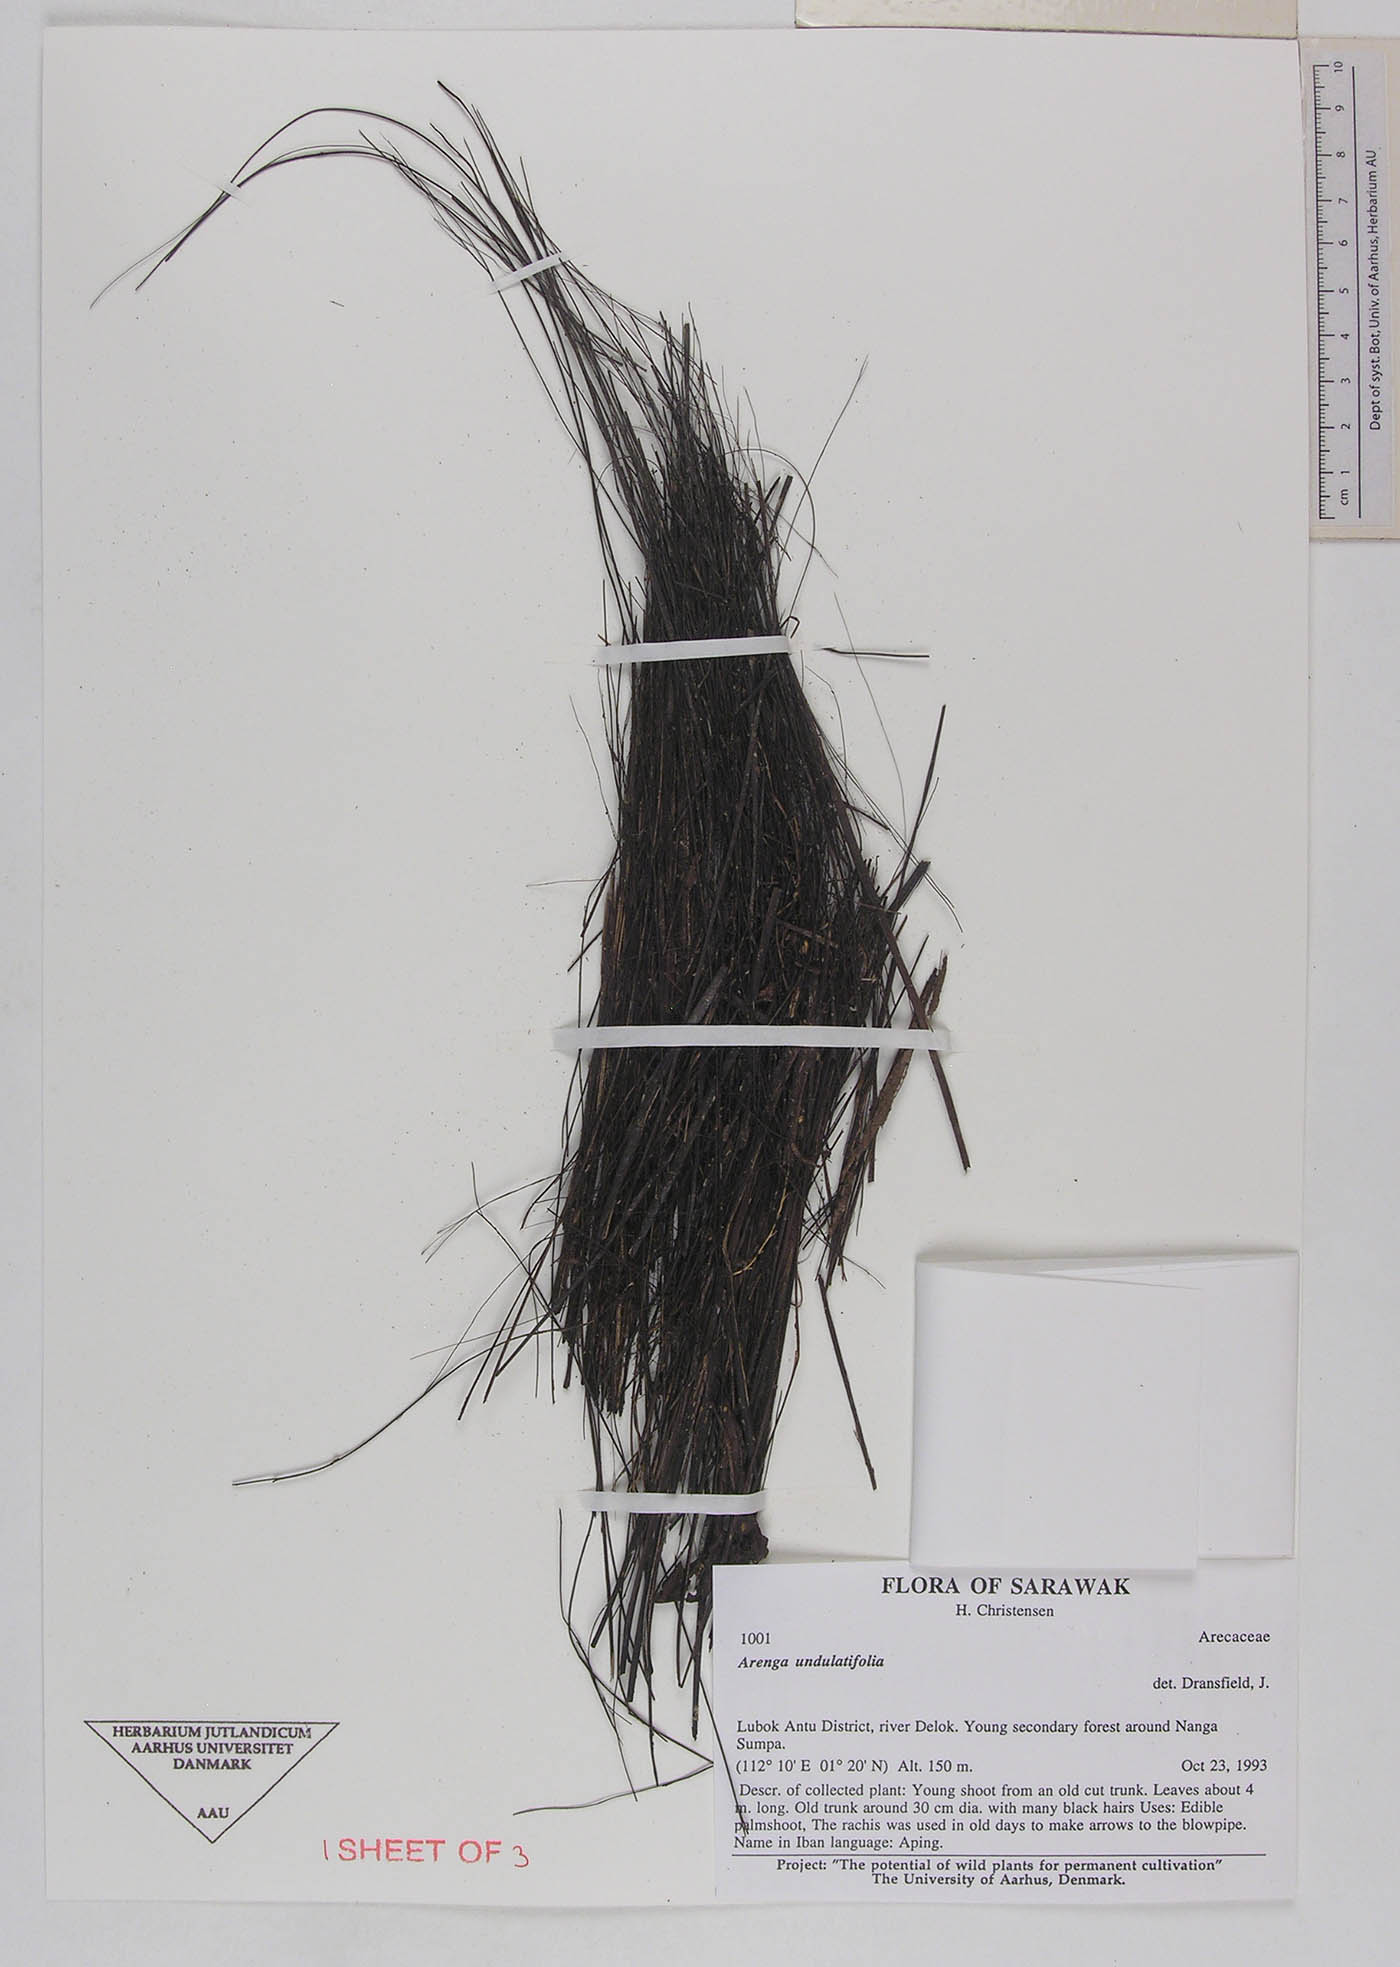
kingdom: Plantae
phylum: Tracheophyta
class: Liliopsida
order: Arecales
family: Arecaceae
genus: Arenga
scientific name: Arenga undulatifolia
